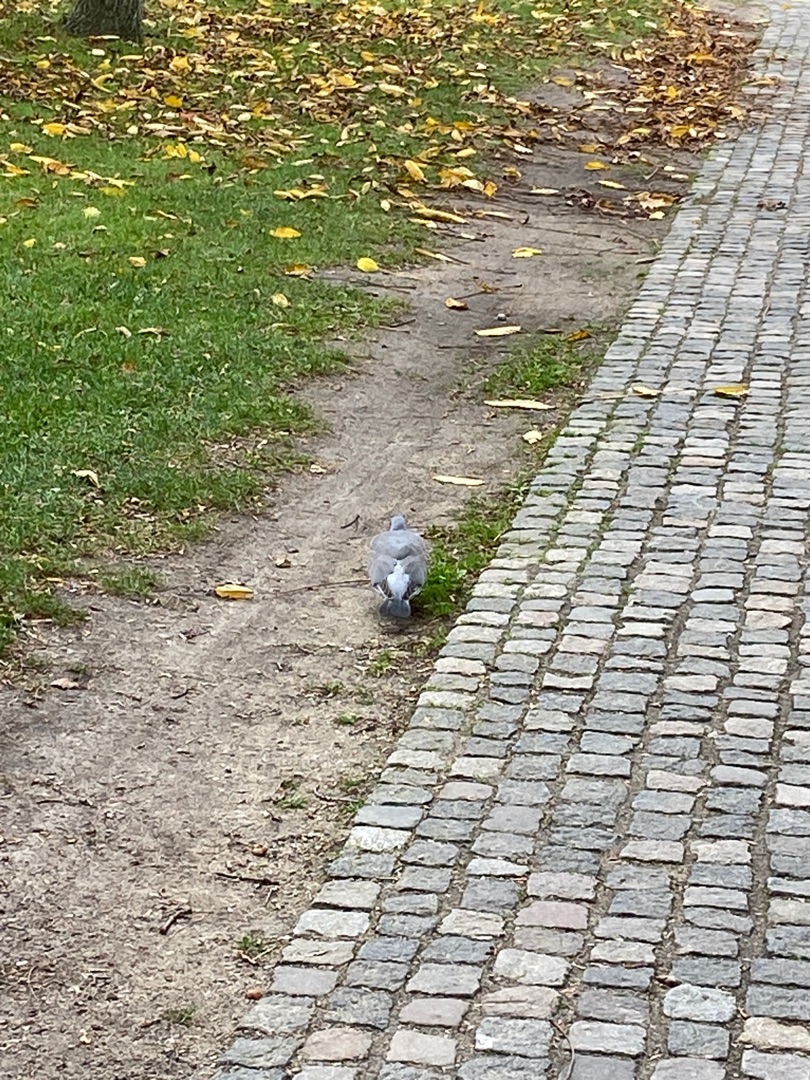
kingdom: Animalia
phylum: Chordata
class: Aves
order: Columbiformes
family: Columbidae
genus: Columba
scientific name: Columba palumbus
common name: Ringdue
